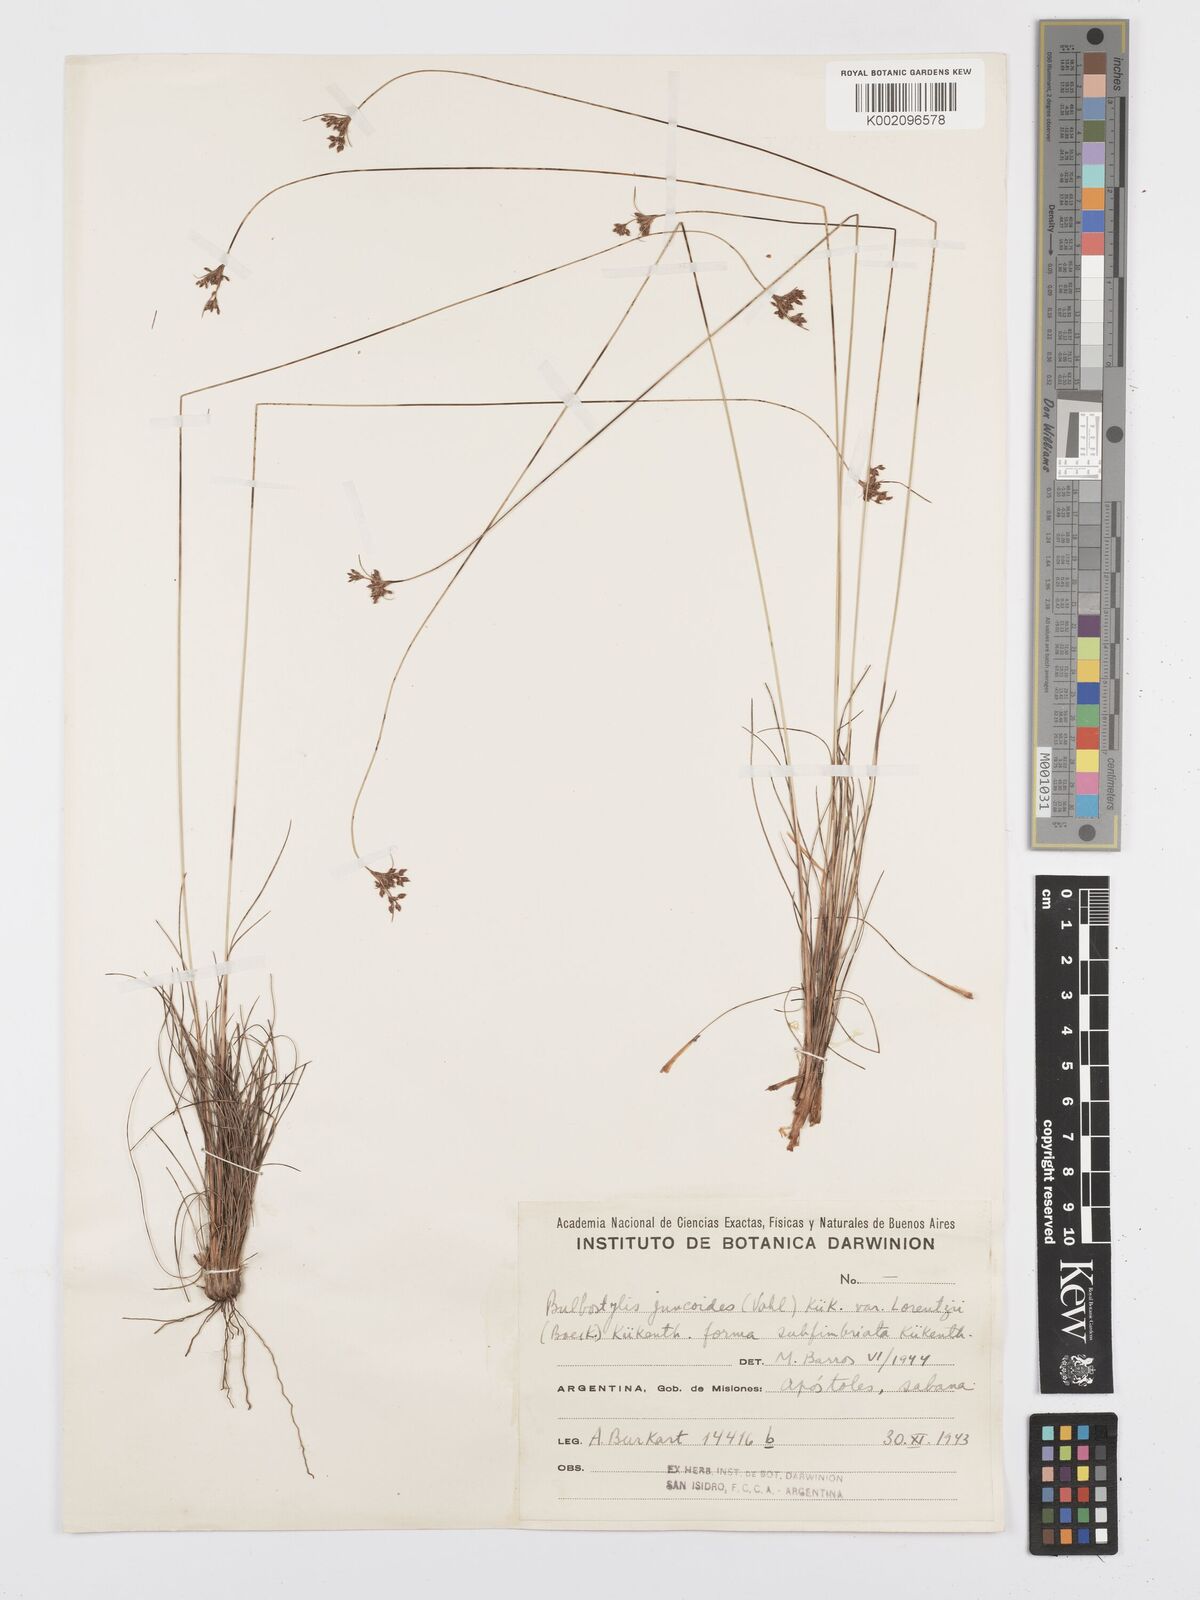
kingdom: Plantae
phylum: Tracheophyta
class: Liliopsida
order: Poales
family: Cyperaceae
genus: Bulbostylis
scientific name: Bulbostylis
